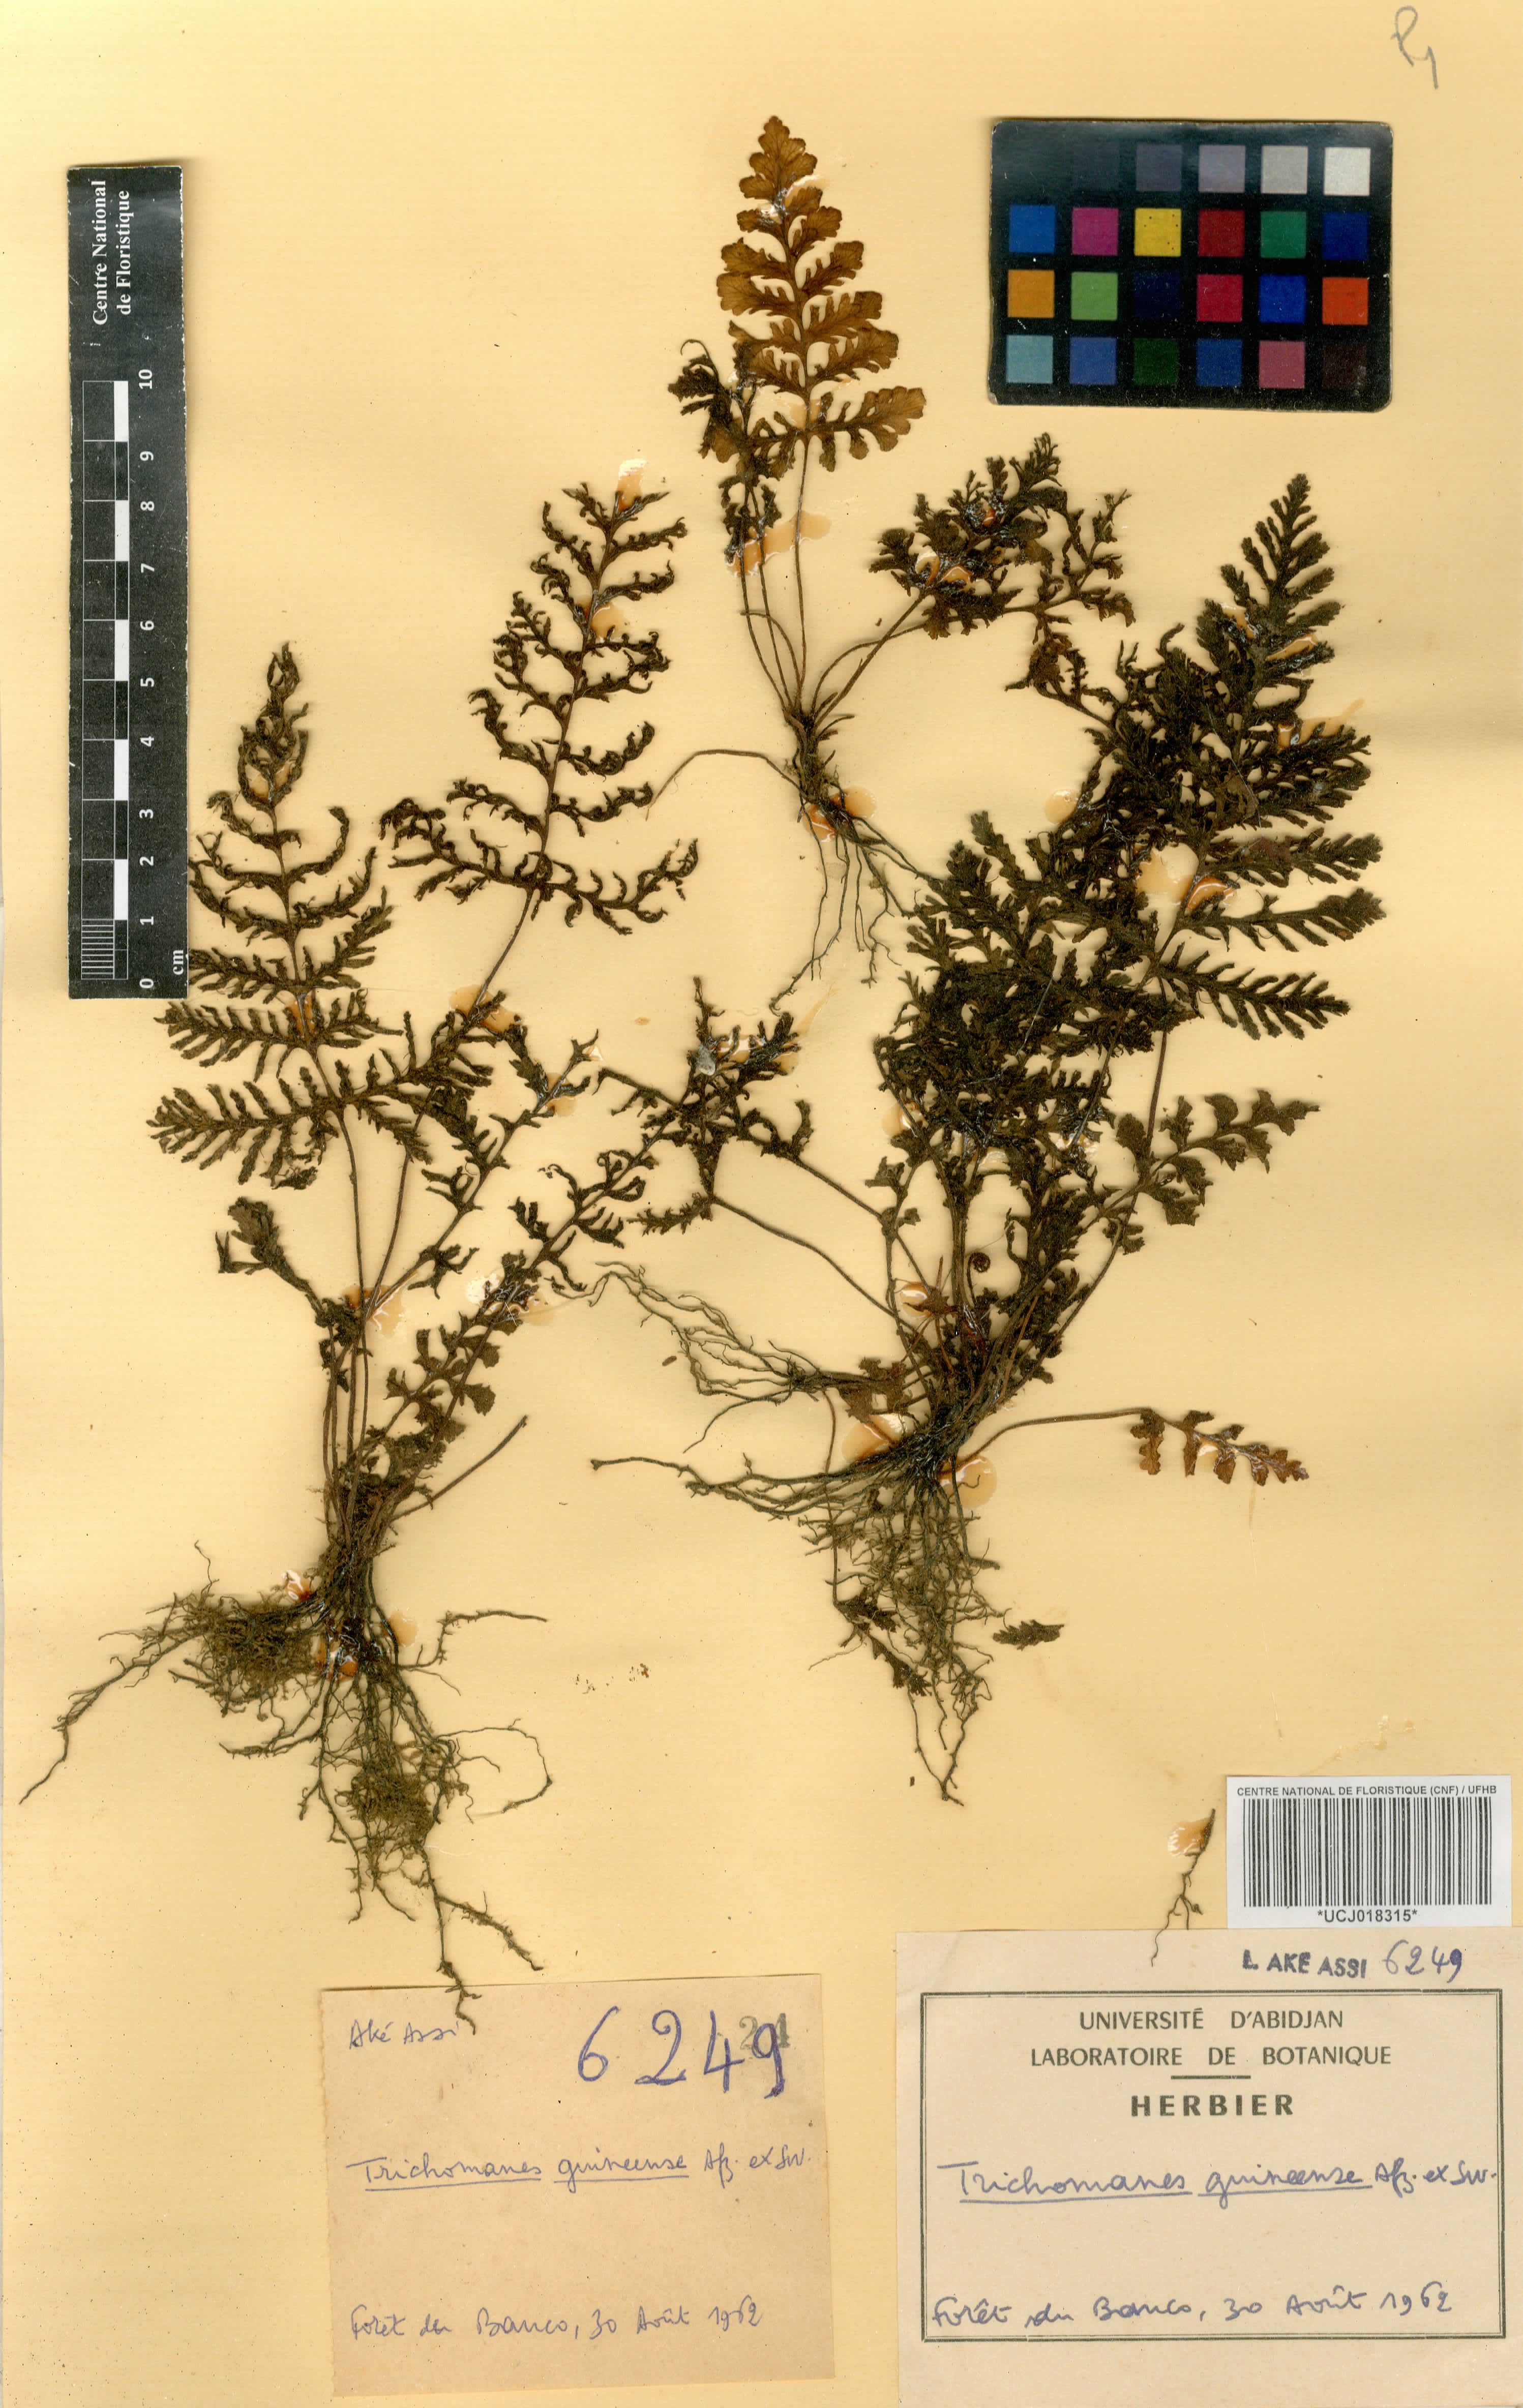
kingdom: Plantae
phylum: Tracheophyta
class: Polypodiopsida
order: Hymenophyllales
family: Hymenophyllaceae
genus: Abrodictyum
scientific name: Abrodictyum guineense
